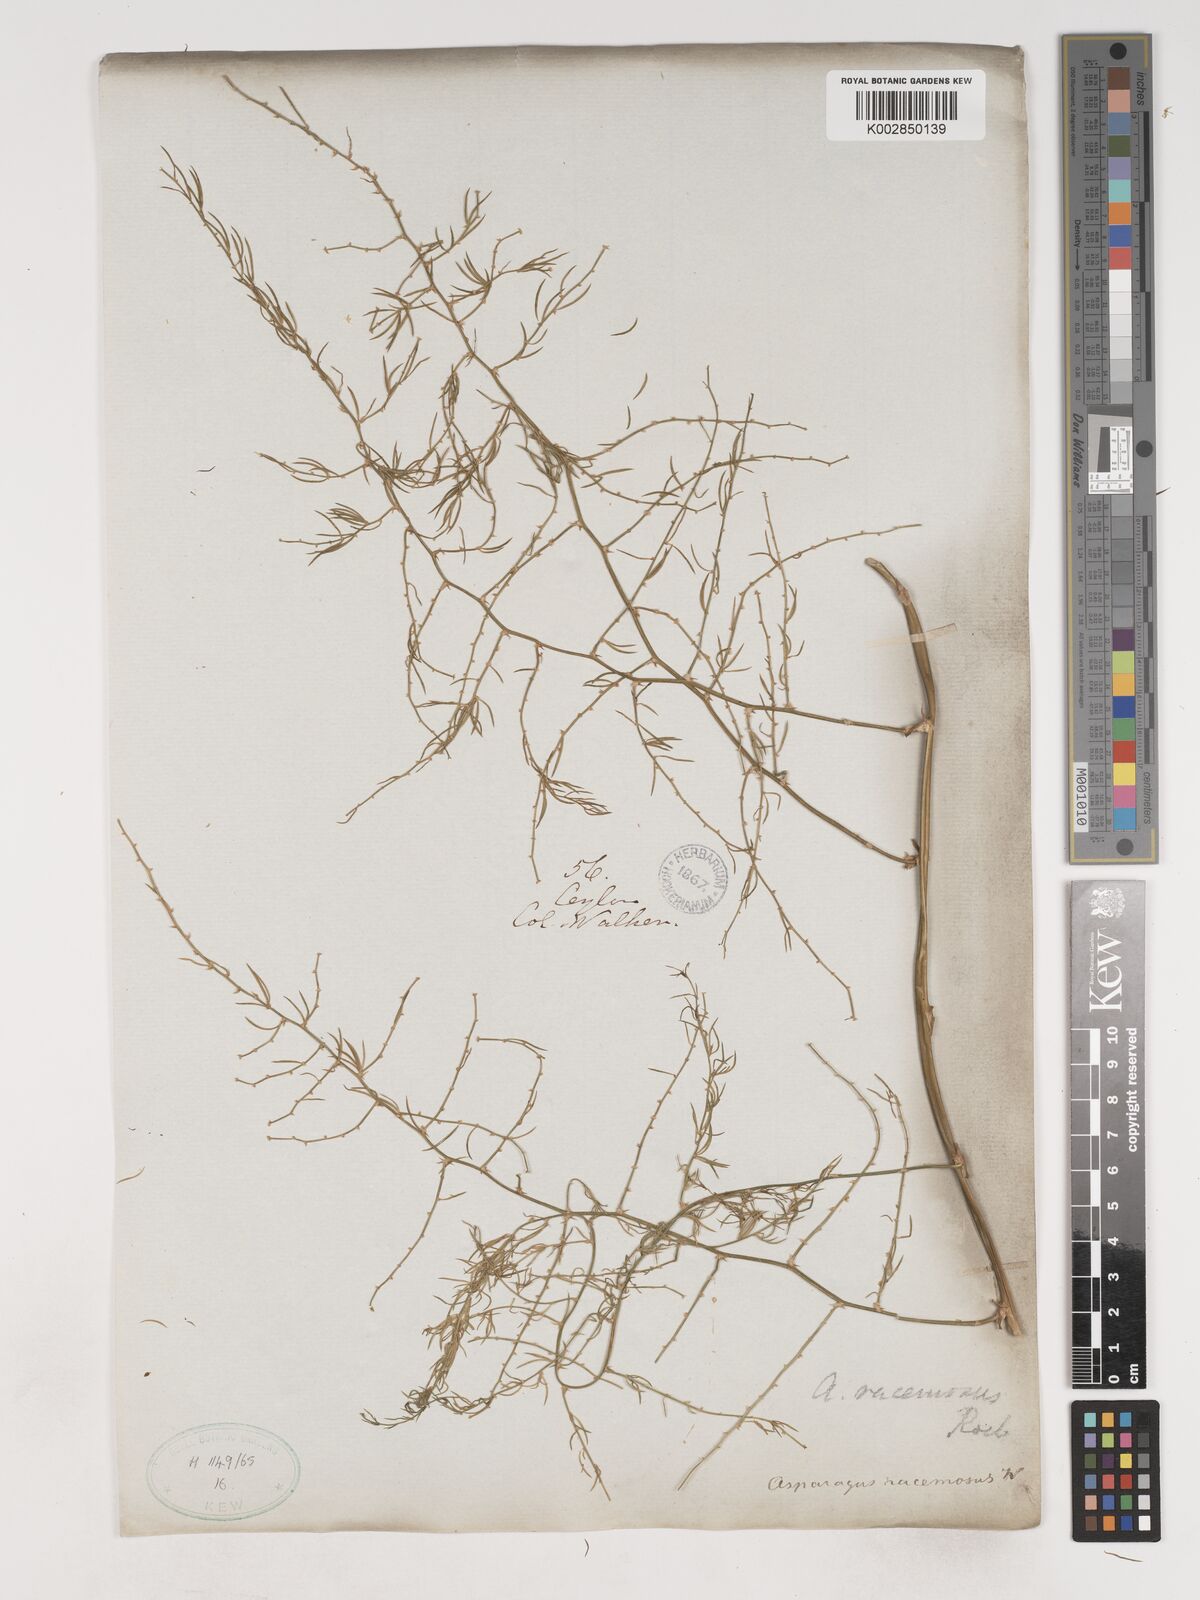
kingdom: Plantae
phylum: Tracheophyta
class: Liliopsida
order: Asparagales
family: Asparagaceae
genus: Asparagus
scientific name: Asparagus racemosus
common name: Asparagus-fern
